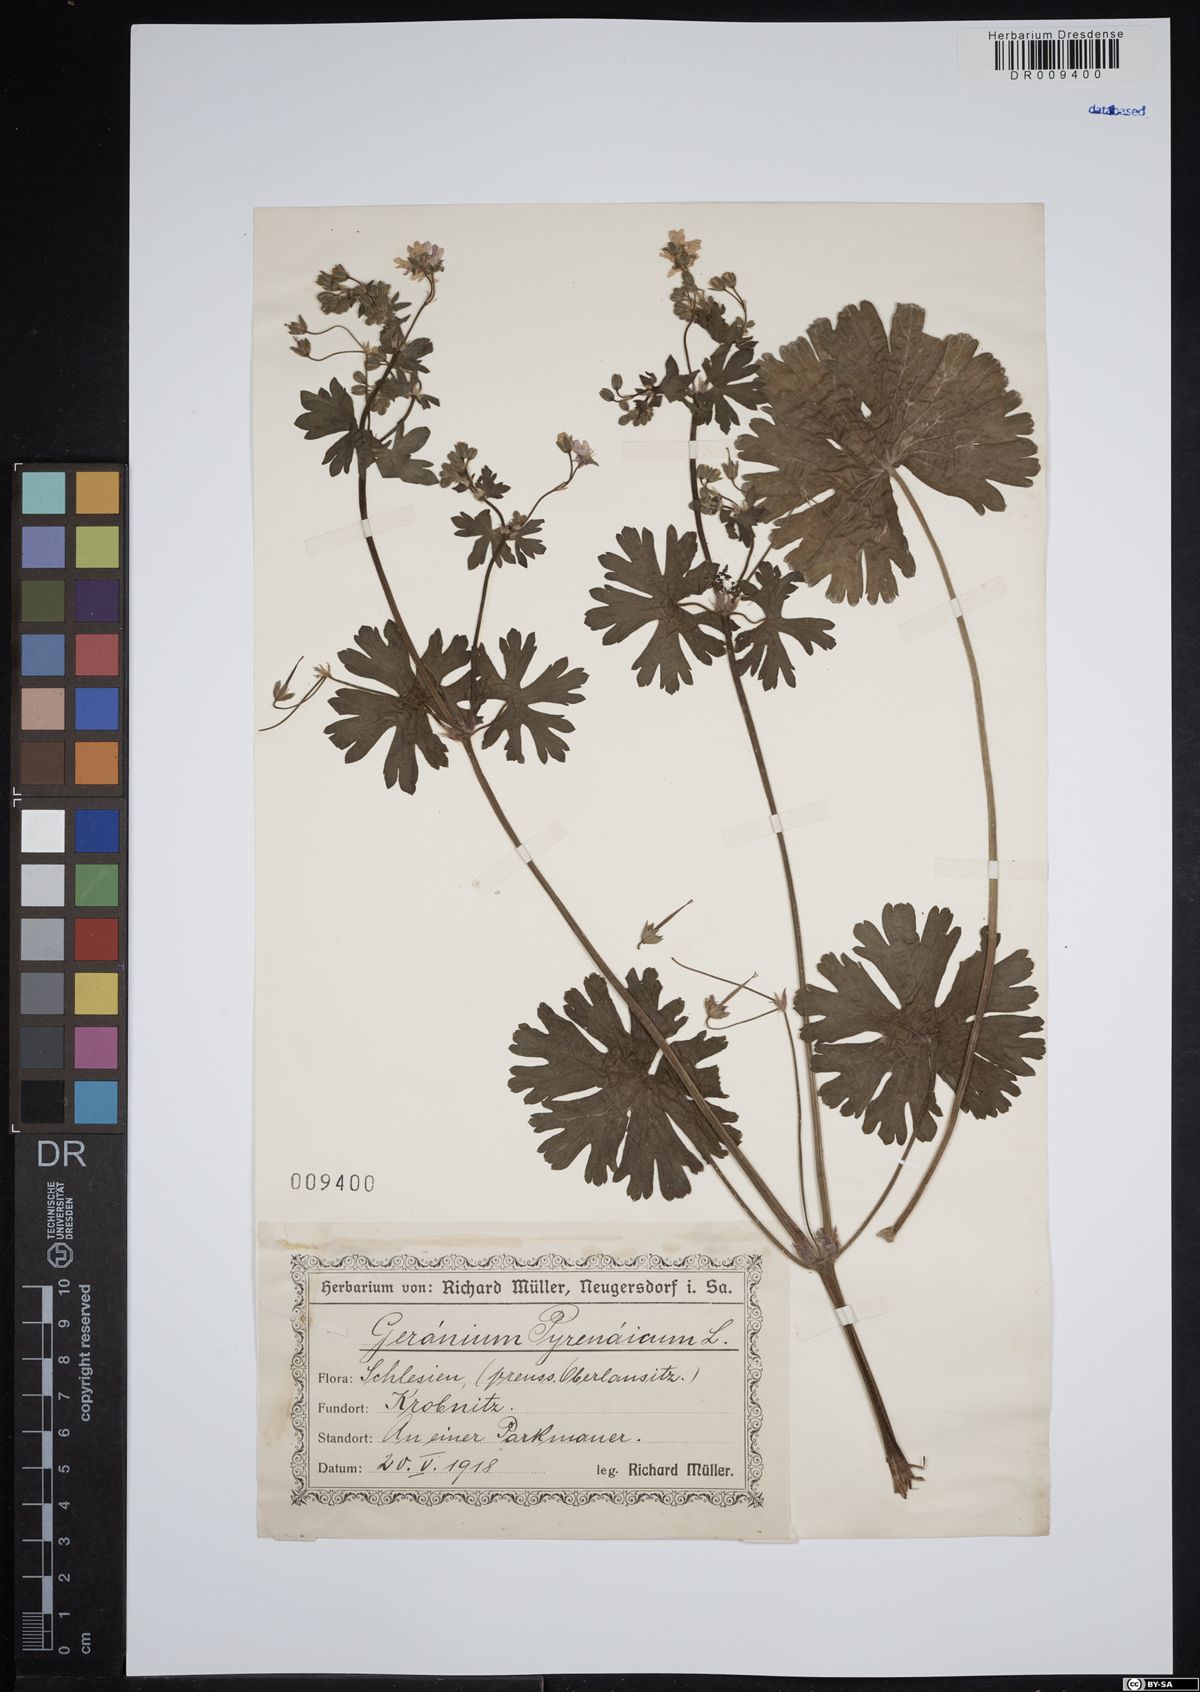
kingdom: Plantae
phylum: Tracheophyta
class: Magnoliopsida
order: Geraniales
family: Geraniaceae
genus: Geranium
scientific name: Geranium pyrenaicum
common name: Hedgerow crane's-bill
